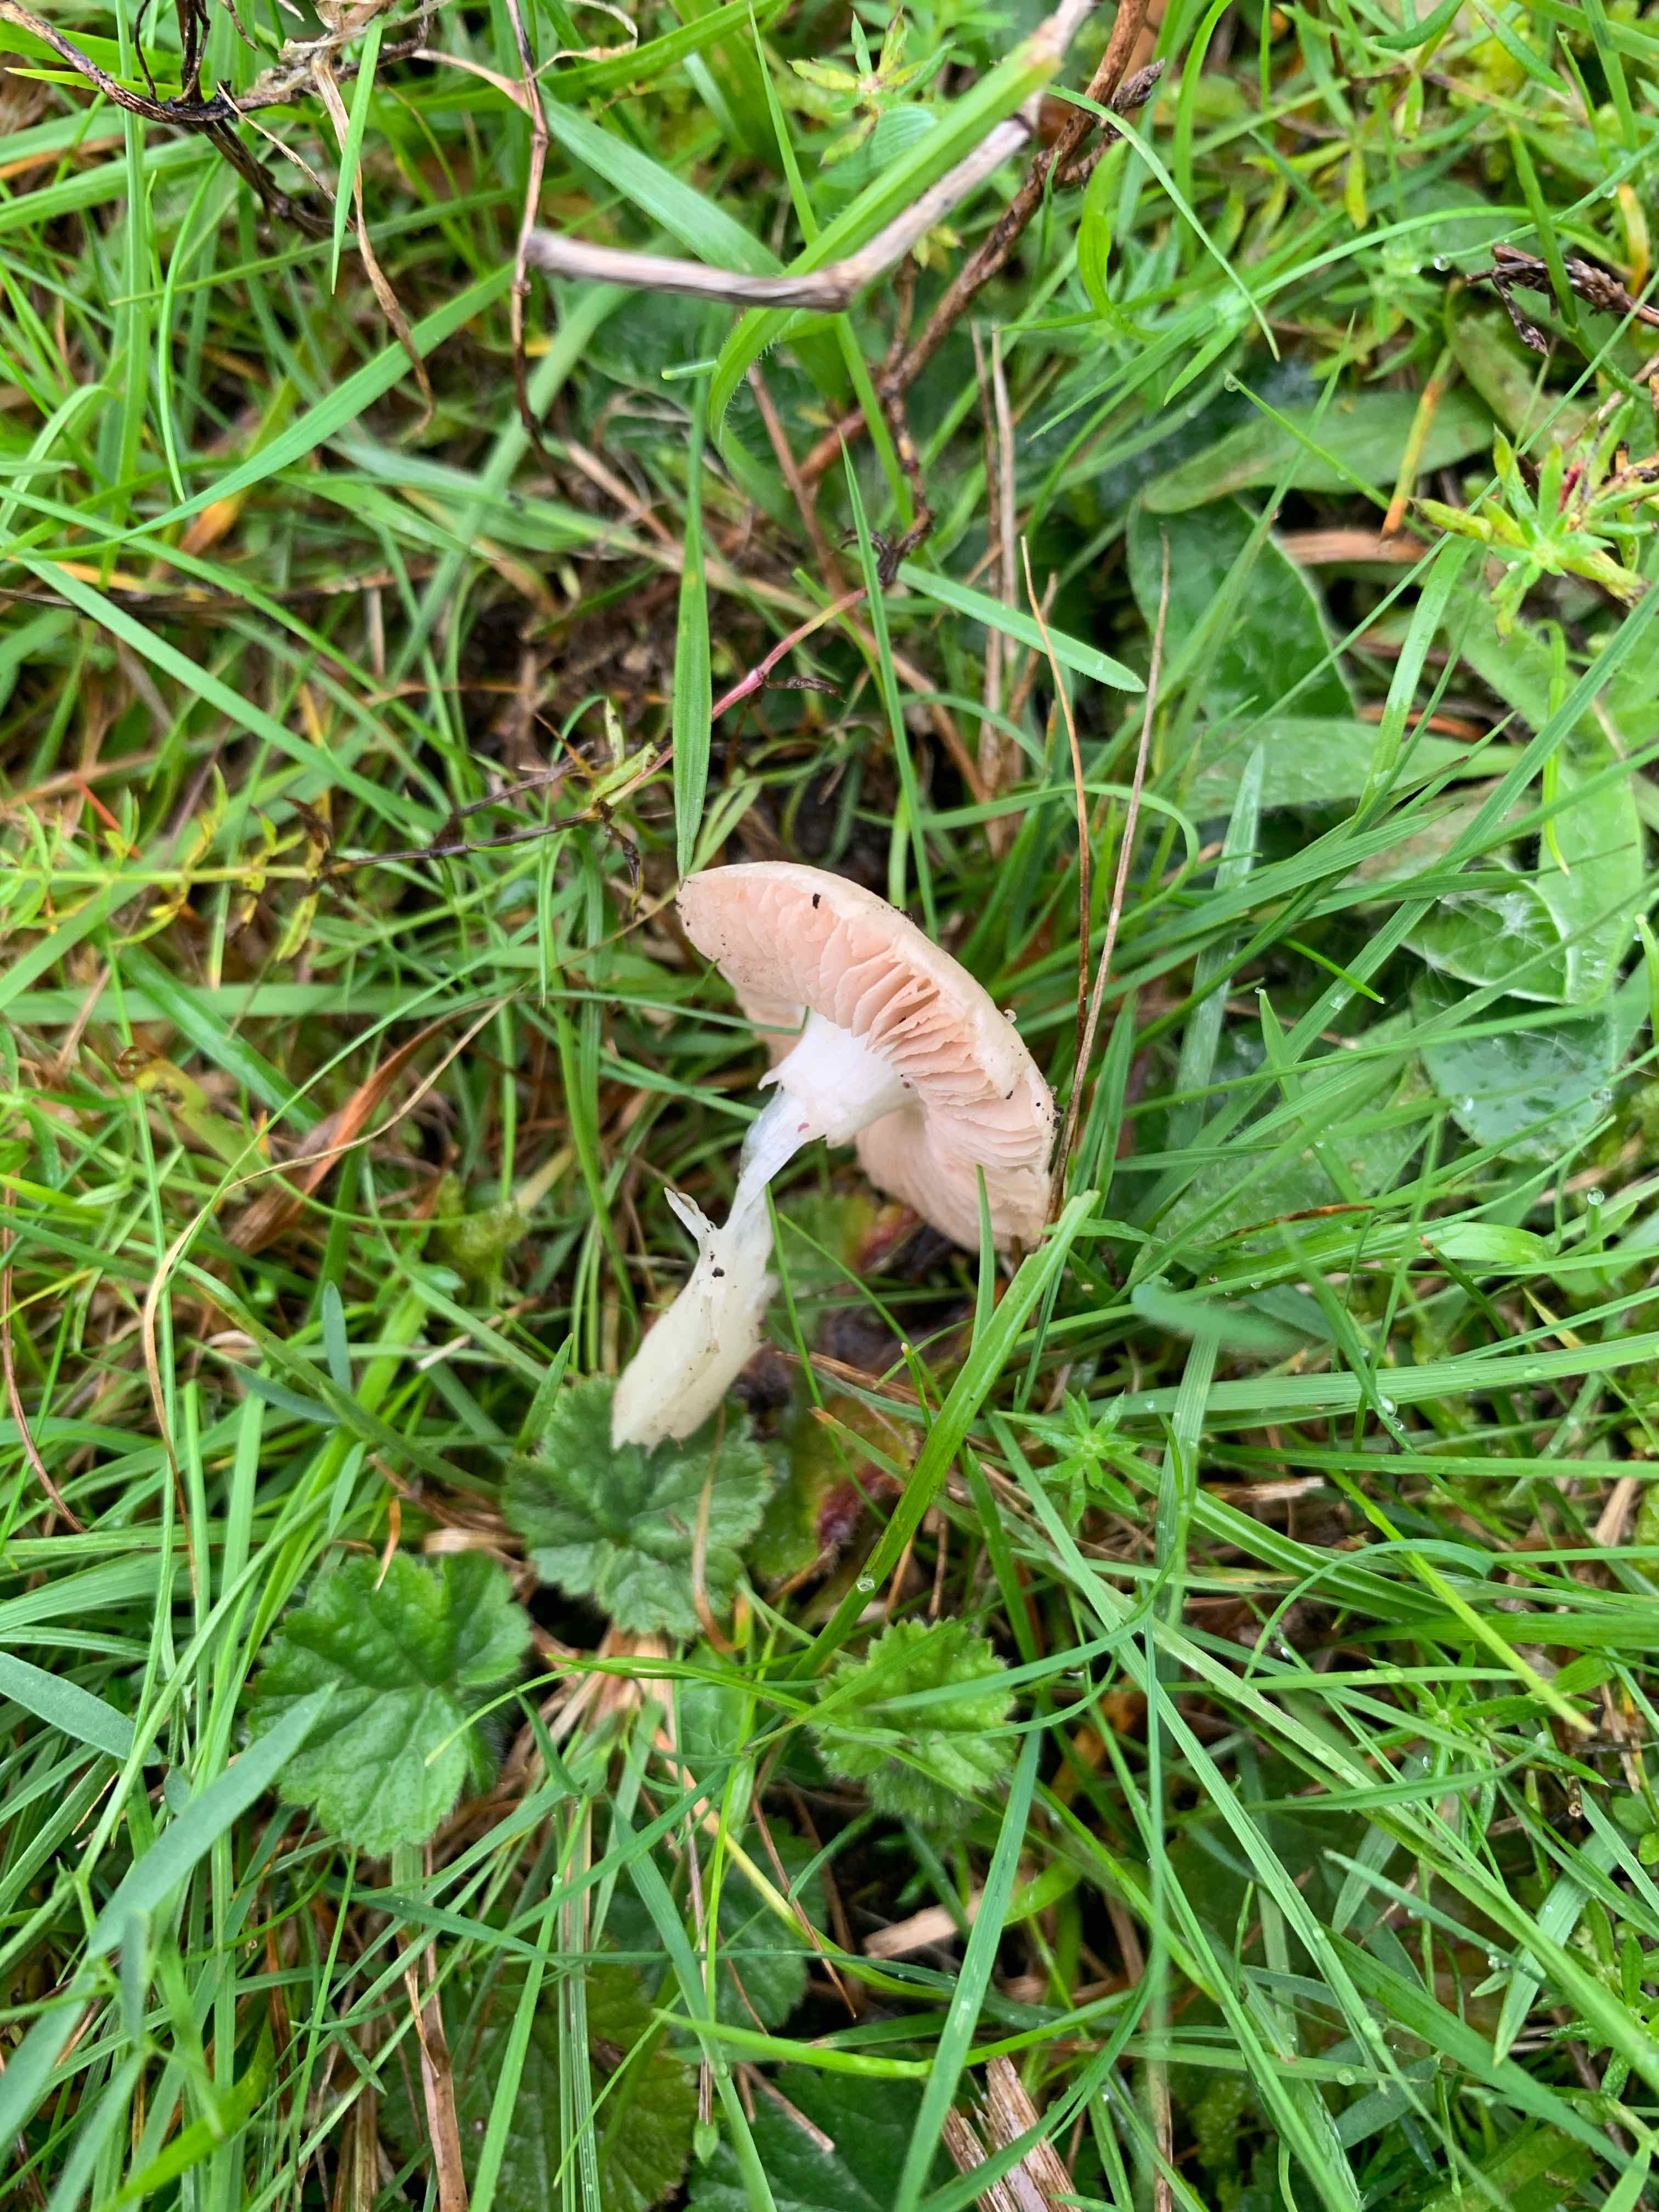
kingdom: Fungi
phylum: Basidiomycota
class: Agaricomycetes
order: Agaricales
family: Pluteaceae
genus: Volvariella
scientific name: Volvariella
